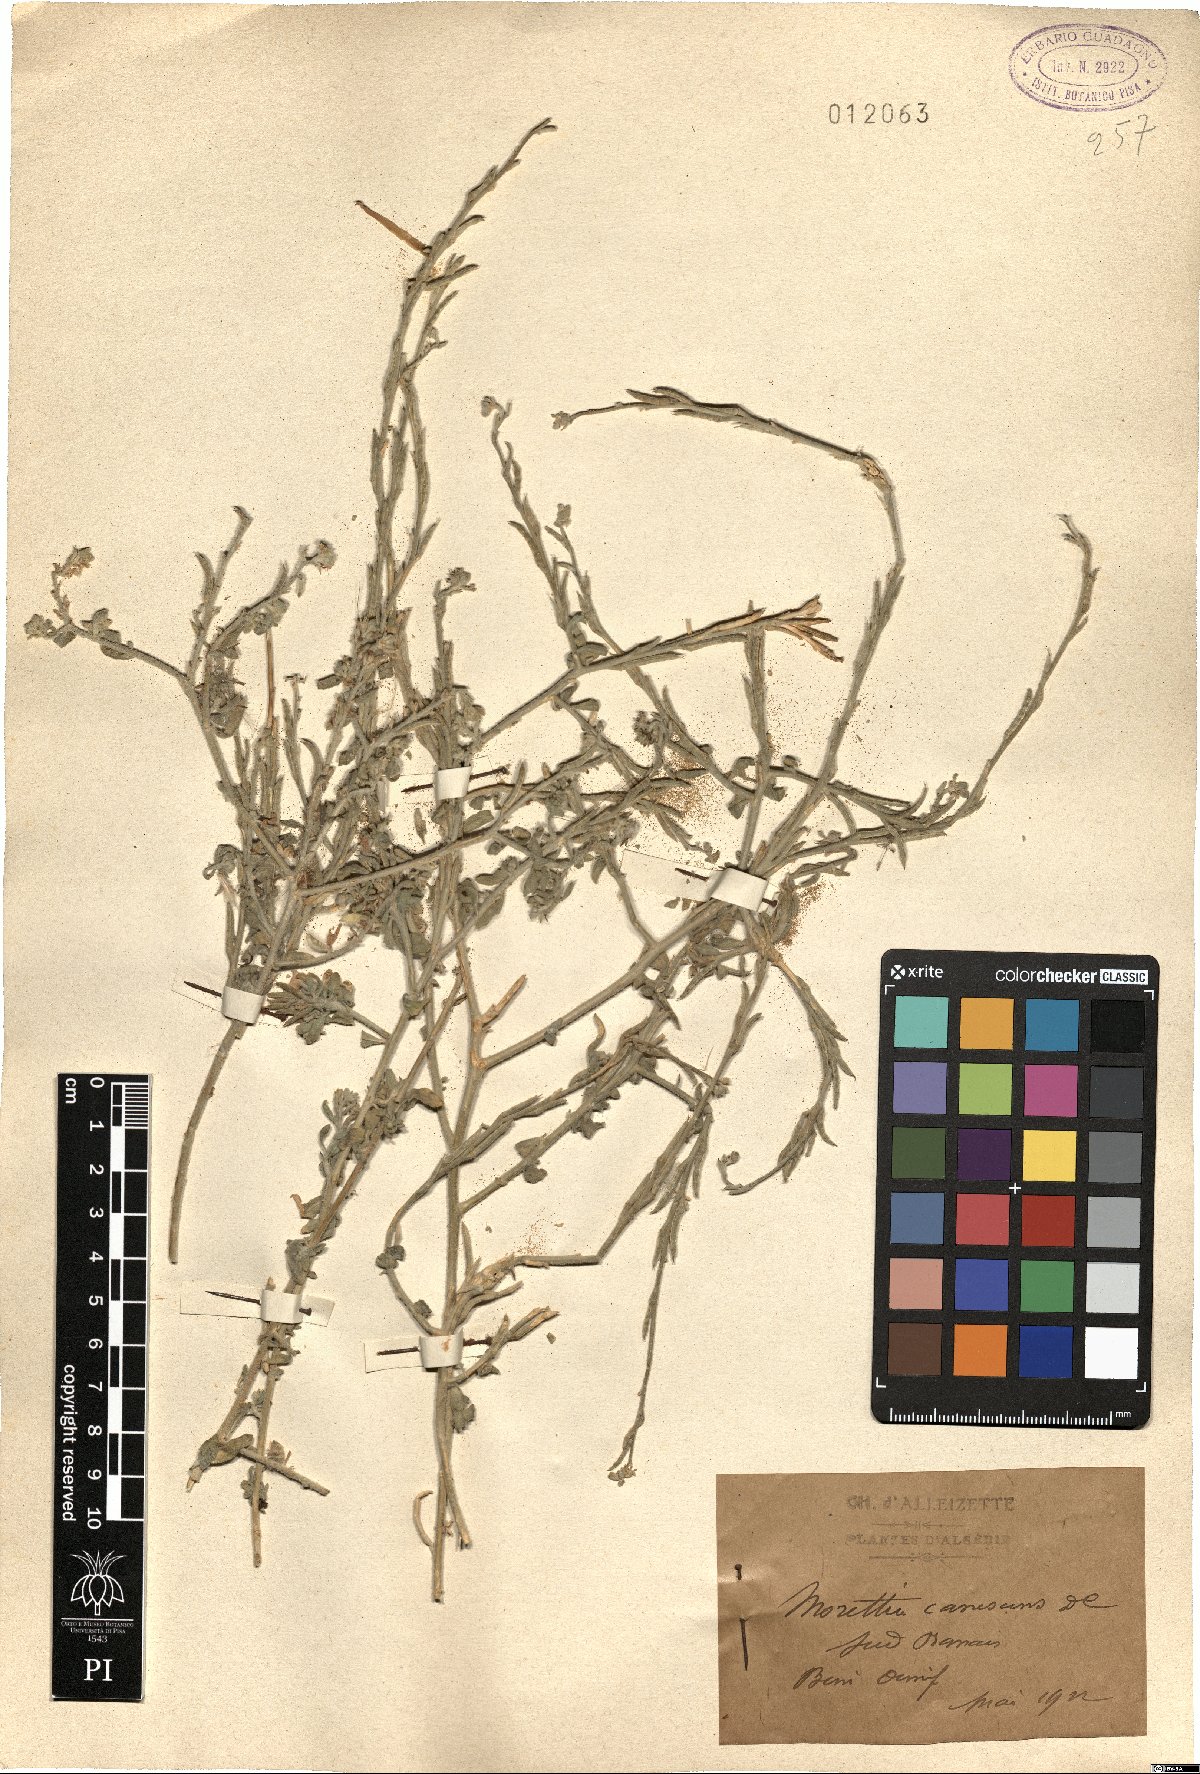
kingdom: Plantae
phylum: Tracheophyta
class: Magnoliopsida
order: Brassicales
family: Brassicaceae
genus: Morettia
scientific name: Morettia canescens
